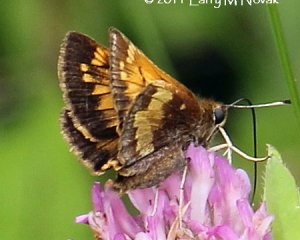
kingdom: Animalia
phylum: Arthropoda
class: Insecta
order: Lepidoptera
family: Hesperiidae
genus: Lon
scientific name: Lon hobomok
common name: Hobomok Skipper
